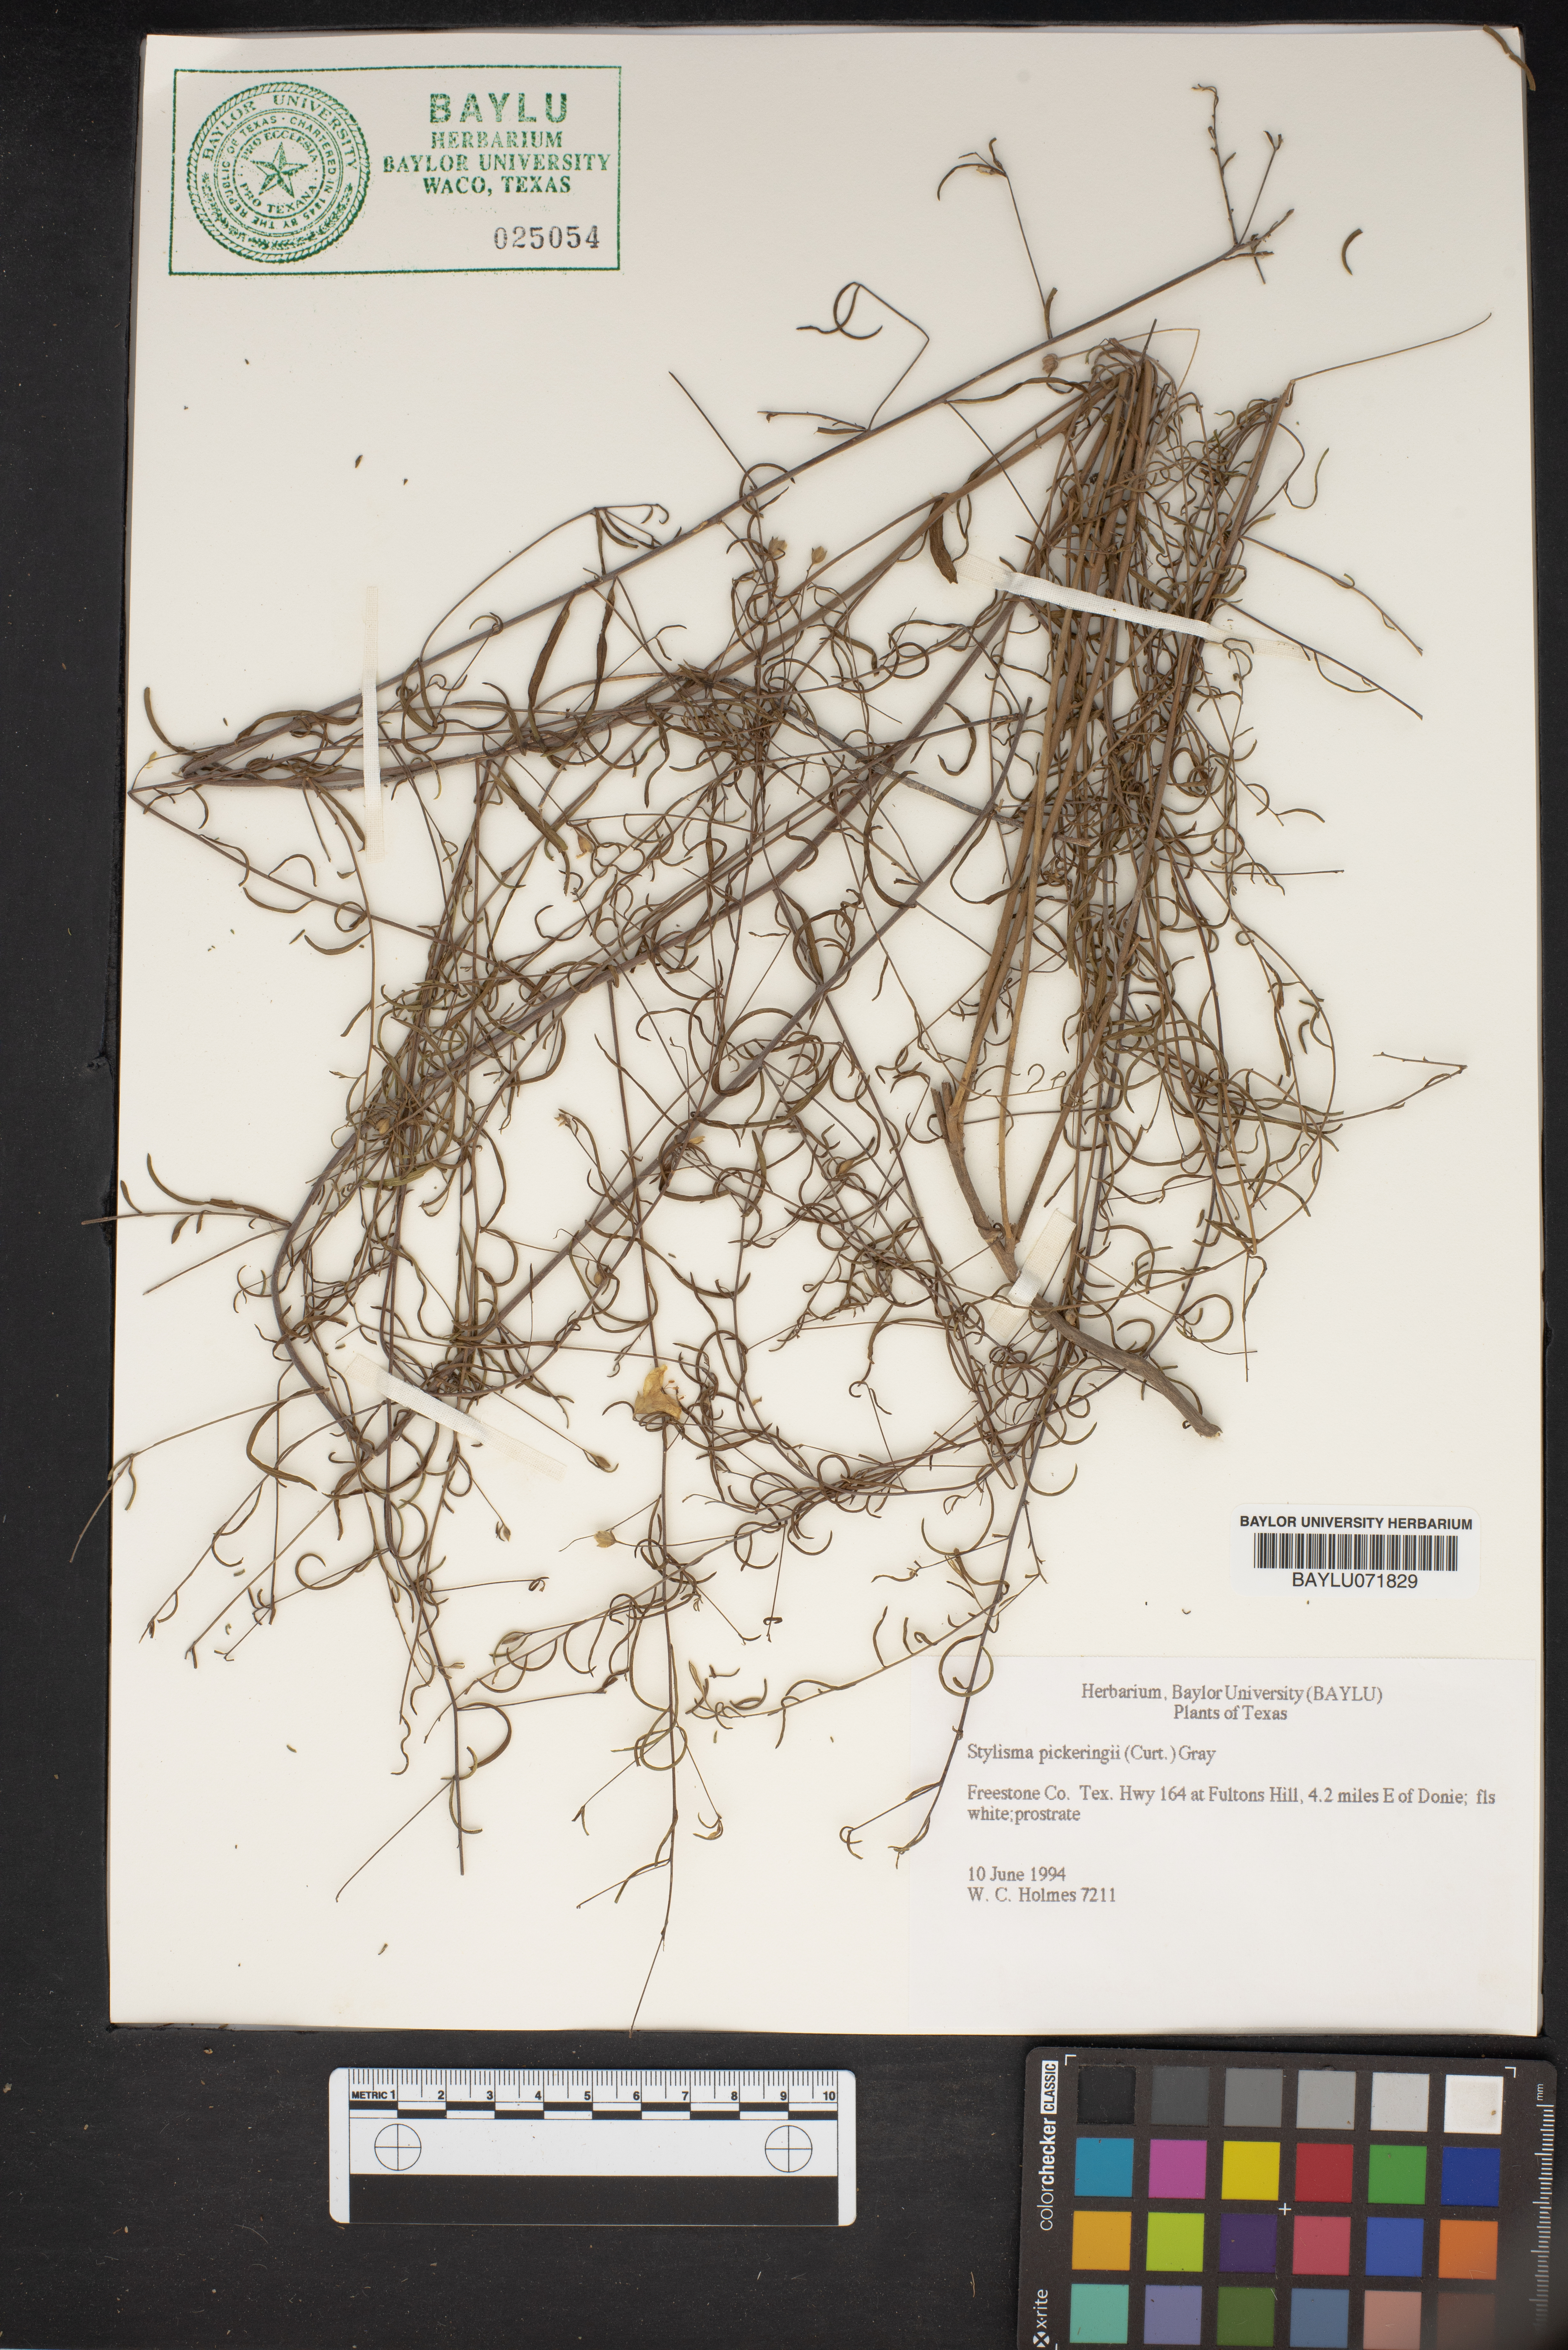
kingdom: Plantae
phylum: Tracheophyta
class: Magnoliopsida
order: Solanales
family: Convolvulaceae
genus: Stylisma
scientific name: Stylisma pickeringii
